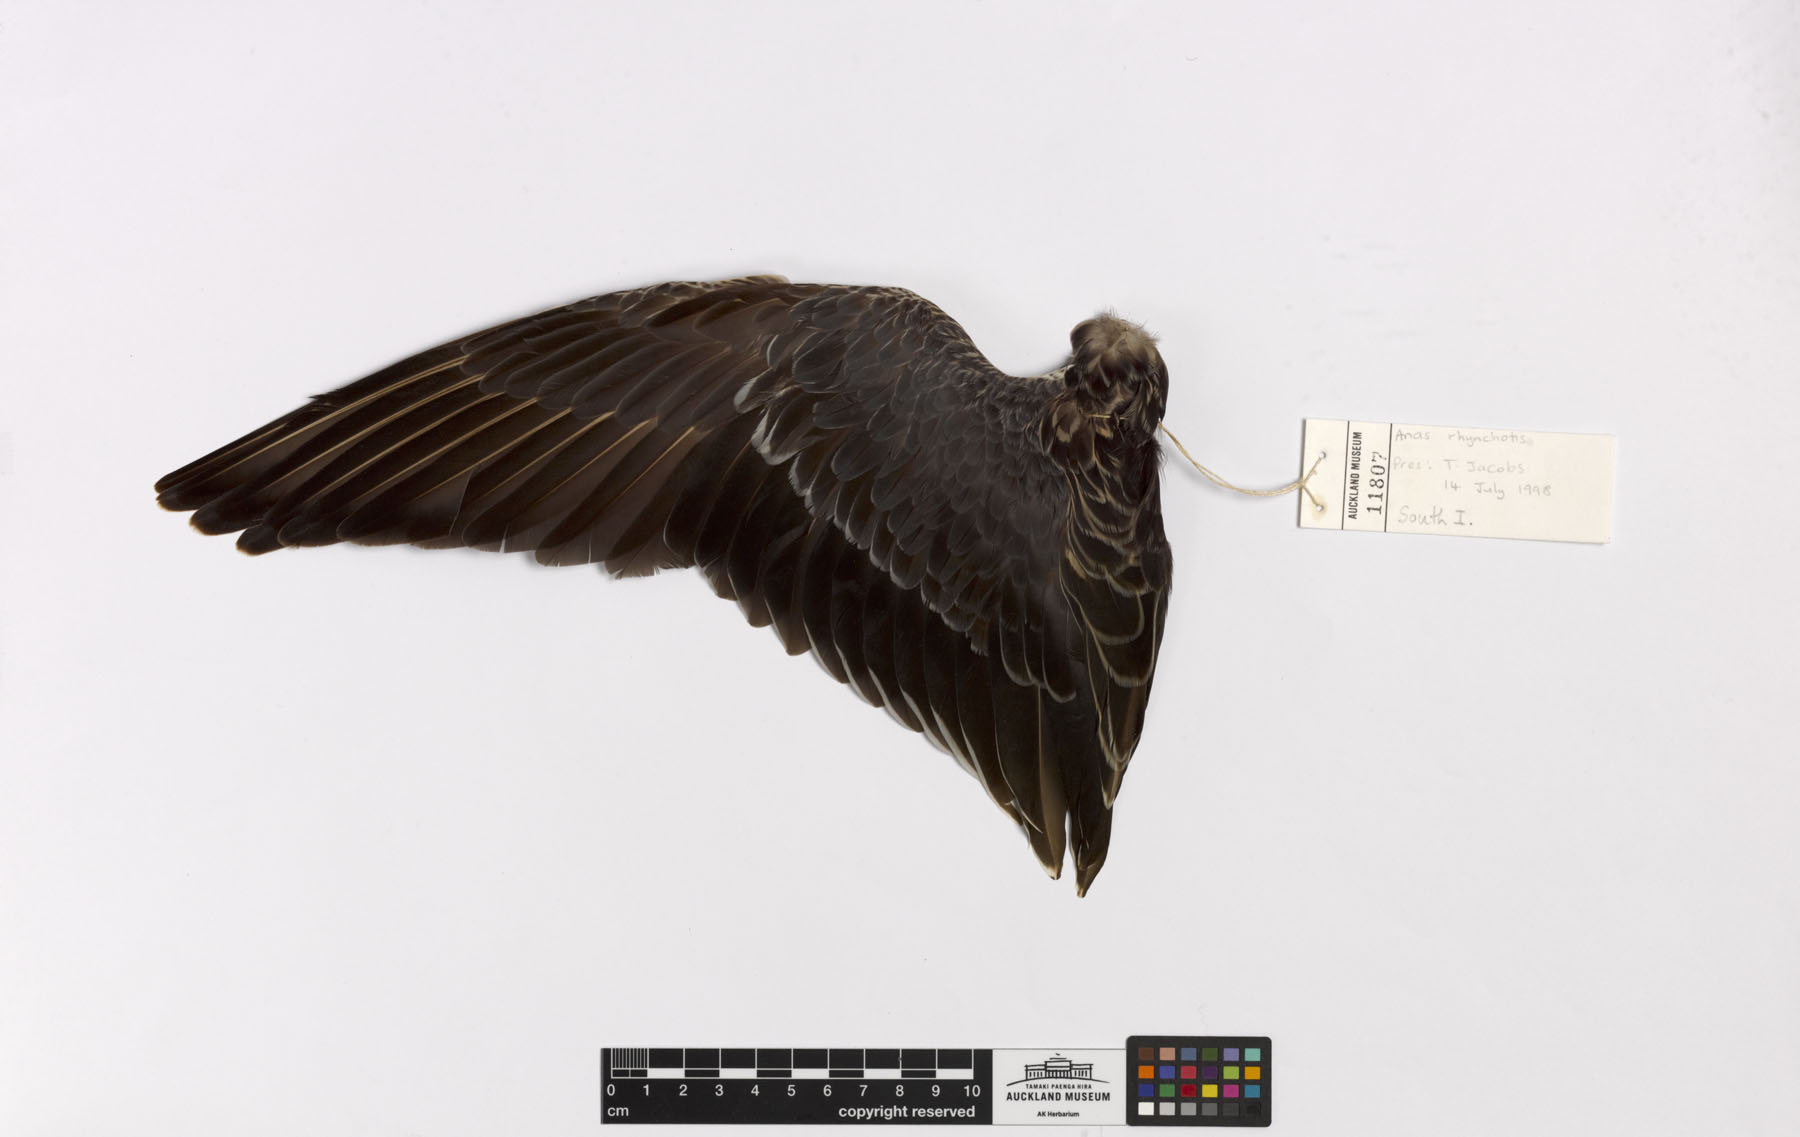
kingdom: Animalia
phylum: Chordata
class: Aves
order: Anseriformes
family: Anatidae
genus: Spatula
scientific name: Spatula rhynchotis
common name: Australian shoveler
